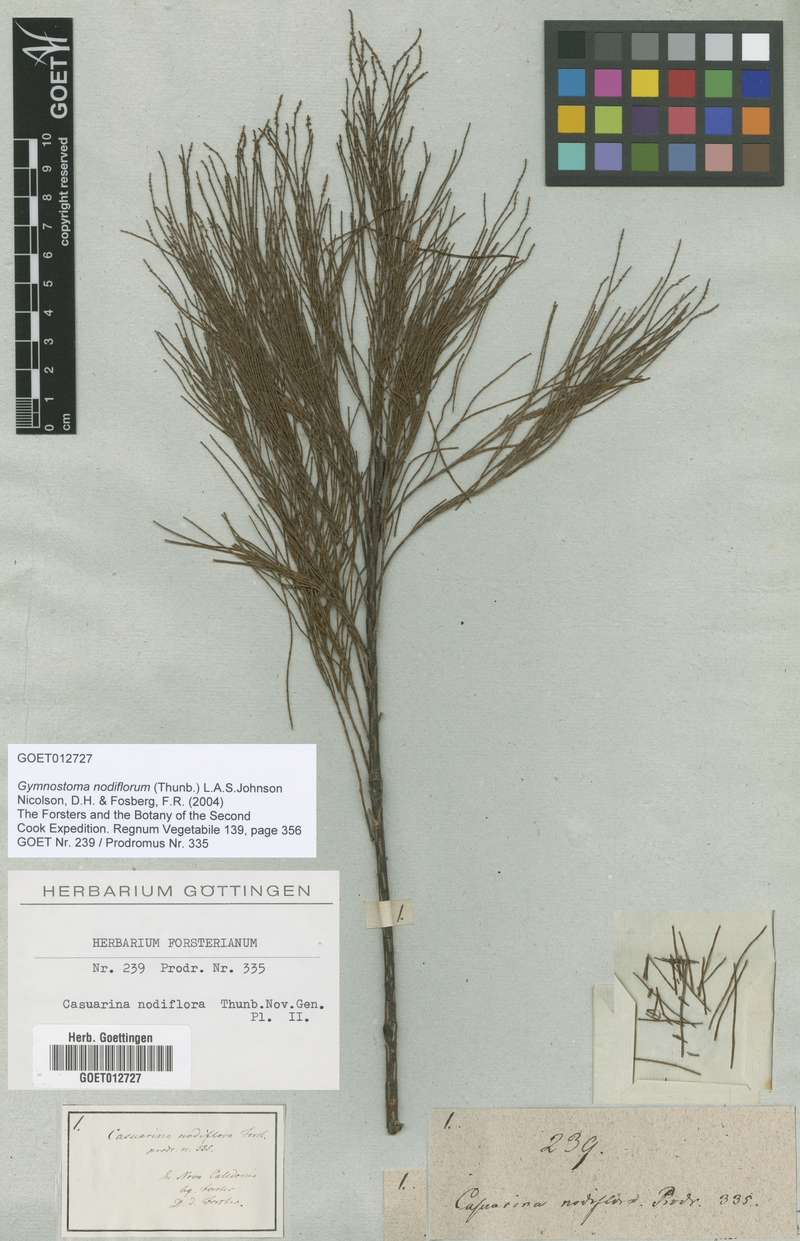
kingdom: Plantae
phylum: Tracheophyta
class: Magnoliopsida
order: Fagales
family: Casuarinaceae
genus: Gymnostoma
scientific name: Gymnostoma nodiflorum
